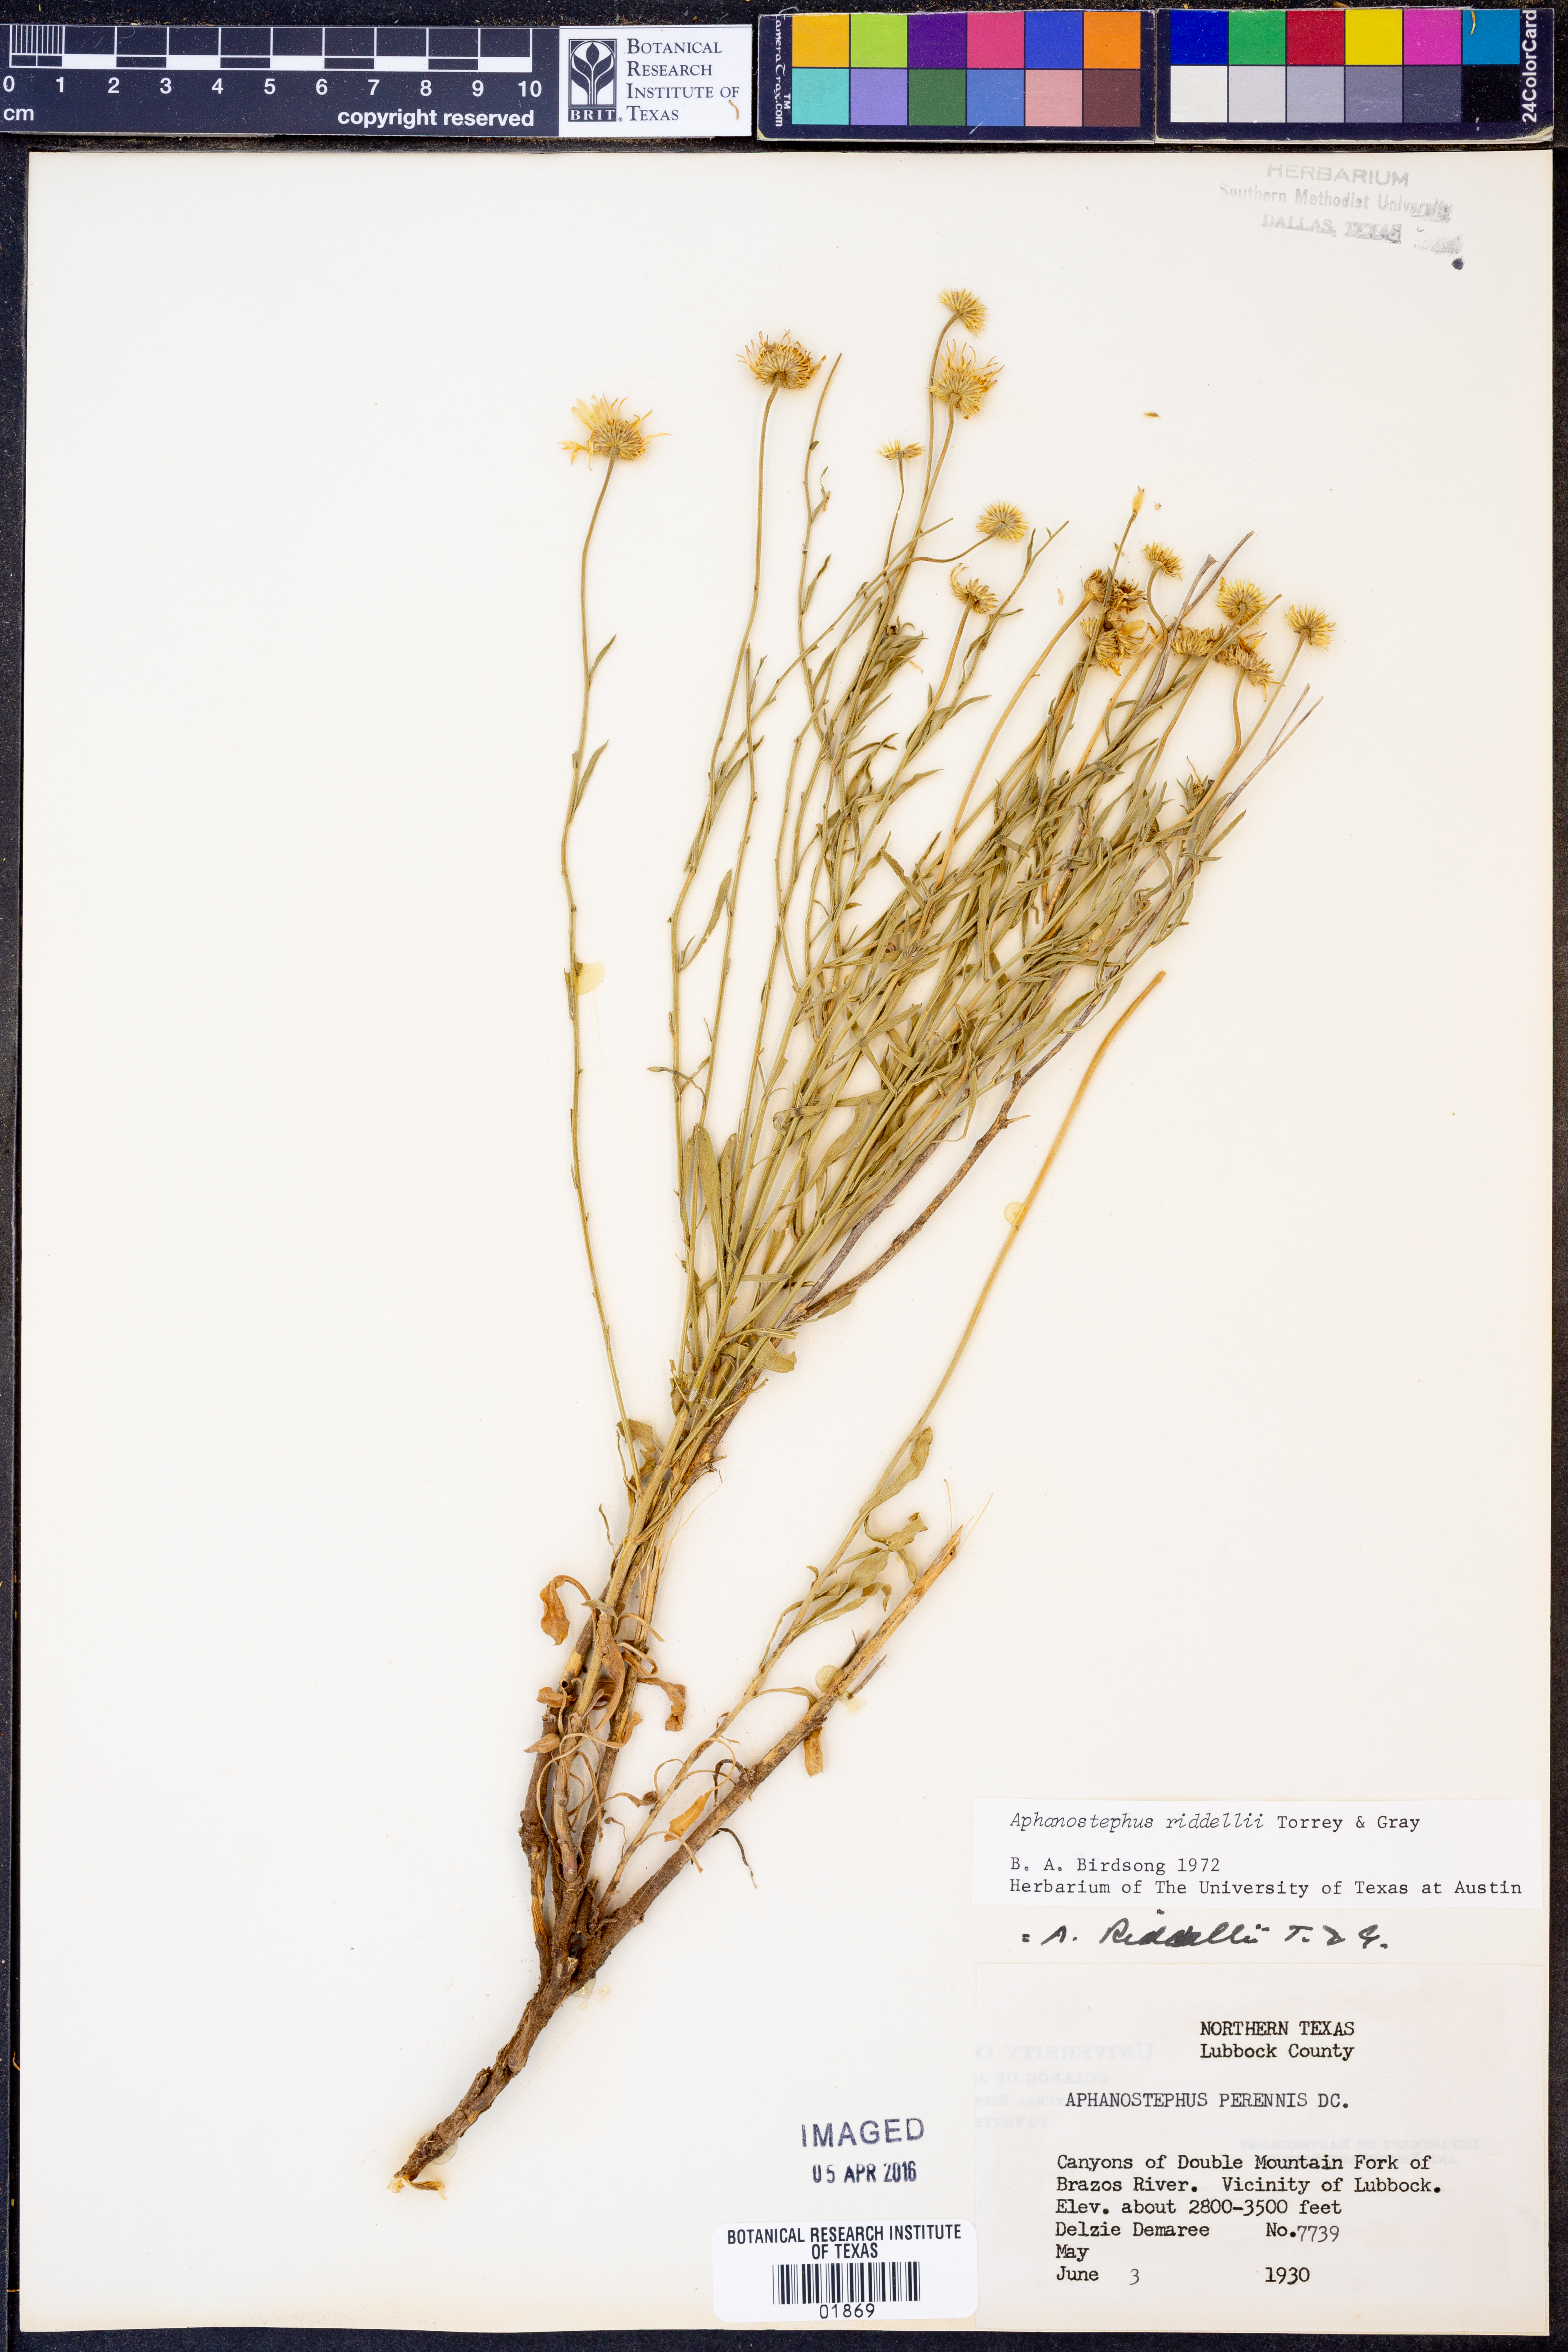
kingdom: Plantae
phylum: Tracheophyta
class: Magnoliopsida
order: Asterales
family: Asteraceae
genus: Aphanostephus
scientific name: Aphanostephus riddellii
